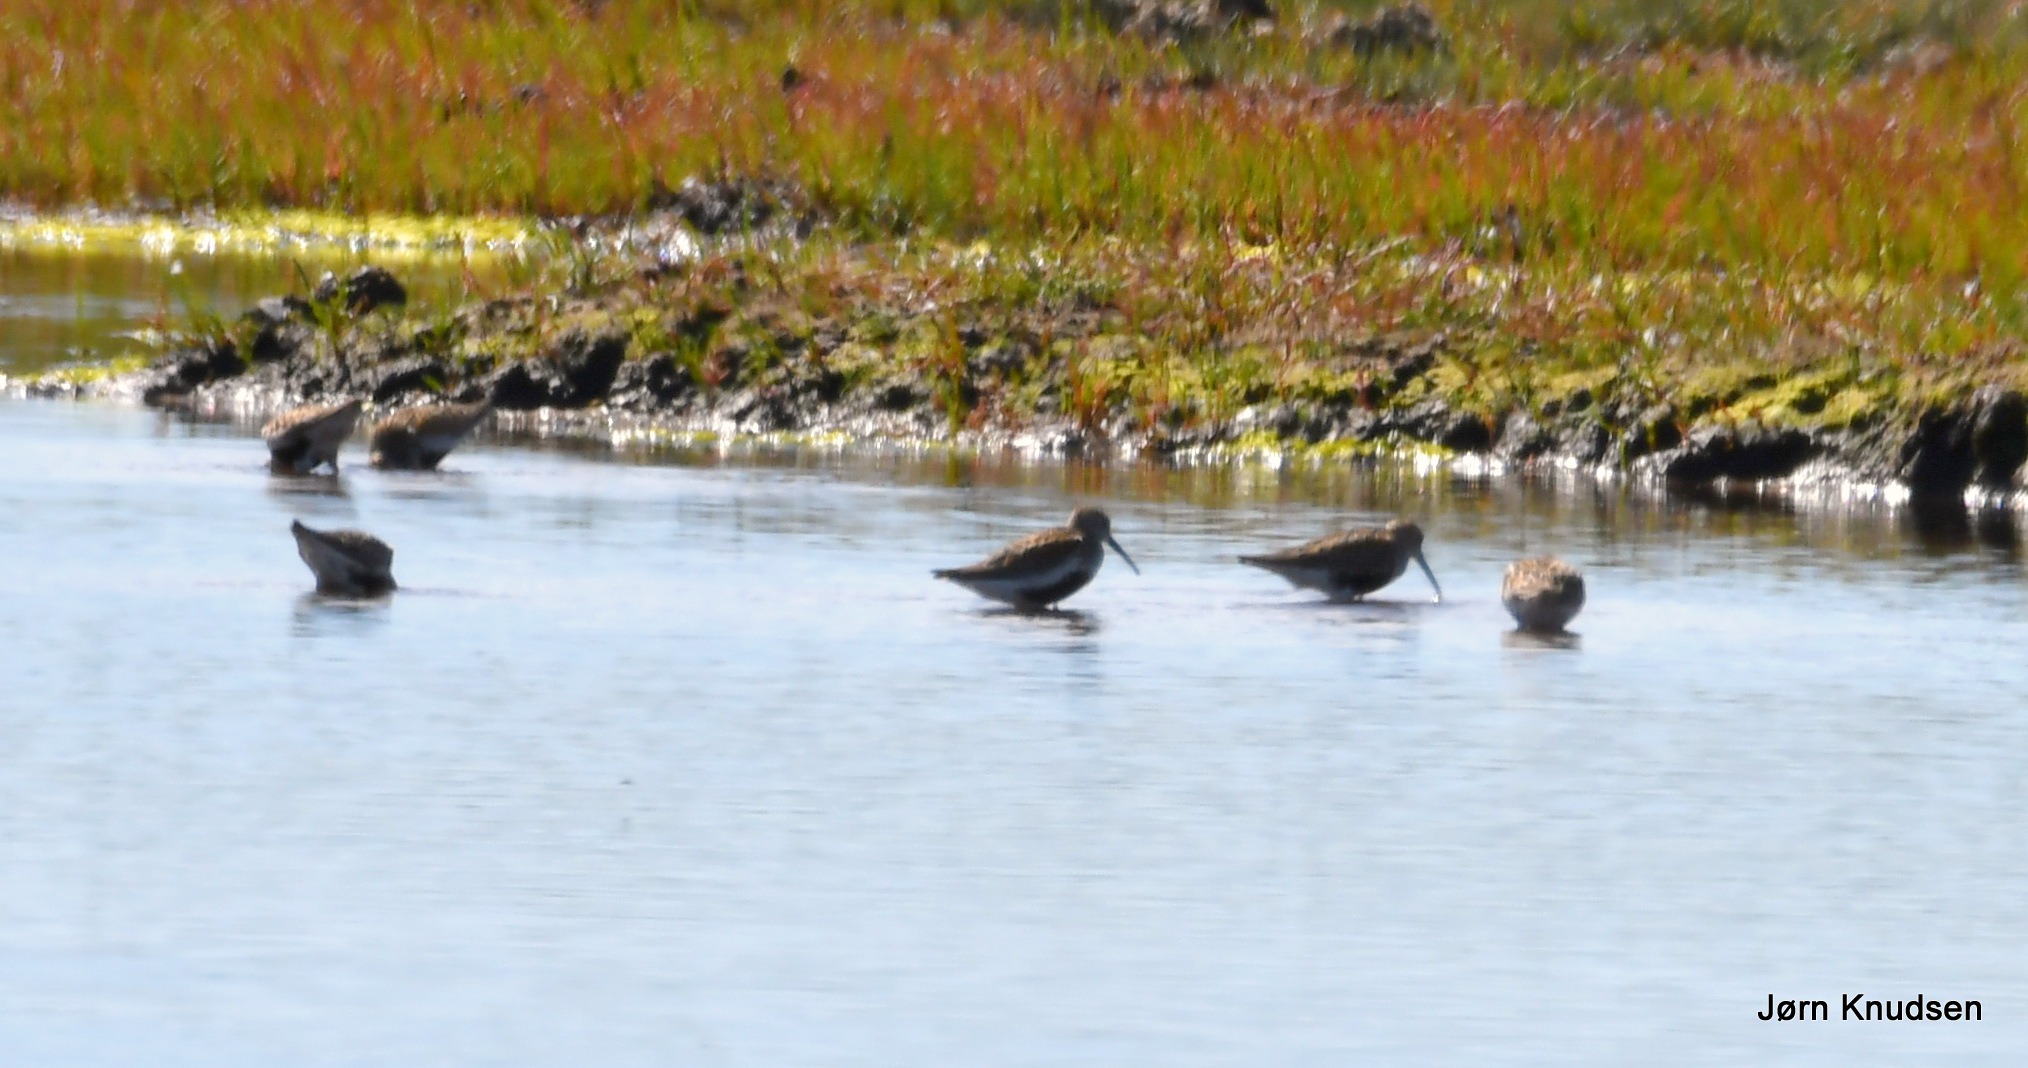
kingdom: Animalia
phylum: Chordata
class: Aves
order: Charadriiformes
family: Scolopacidae
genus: Calidris
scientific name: Calidris alpina
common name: Almindelig ryle
